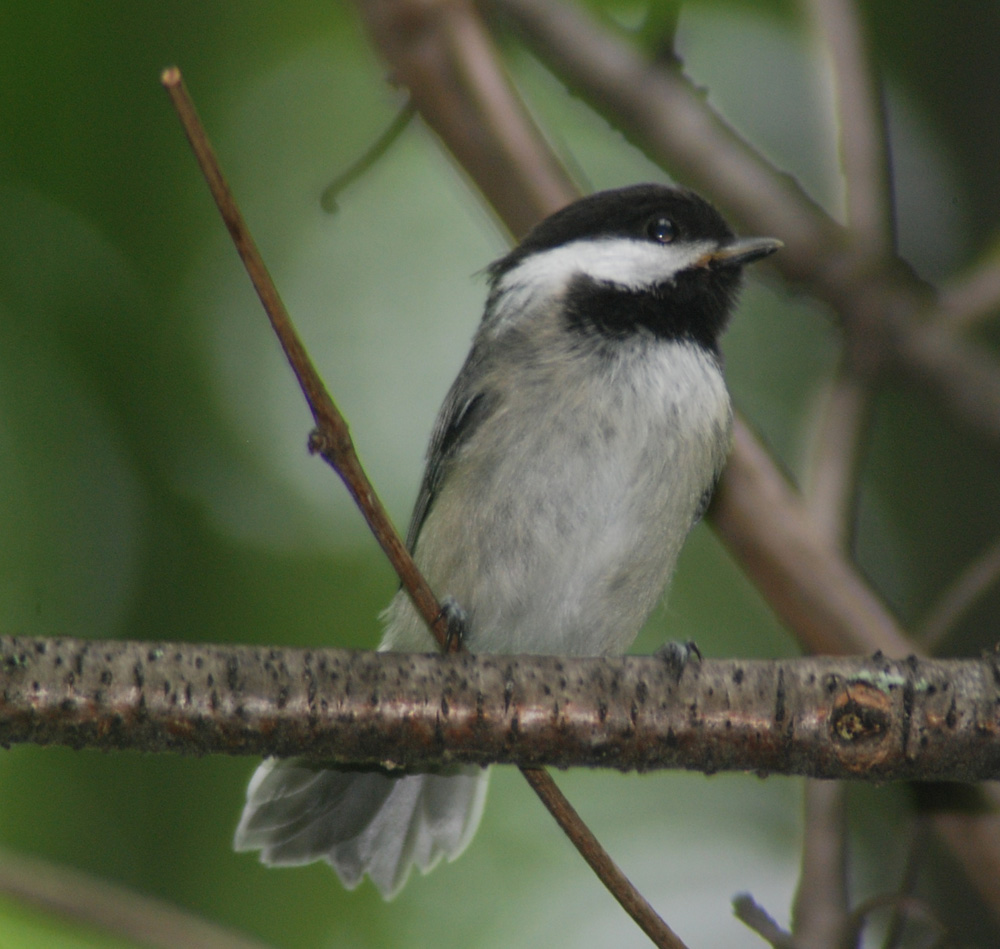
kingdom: Animalia
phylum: Chordata
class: Aves
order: Passeriformes
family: Paridae
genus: Poecile
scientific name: Poecile atricapillus
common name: Black-capped chickadee
